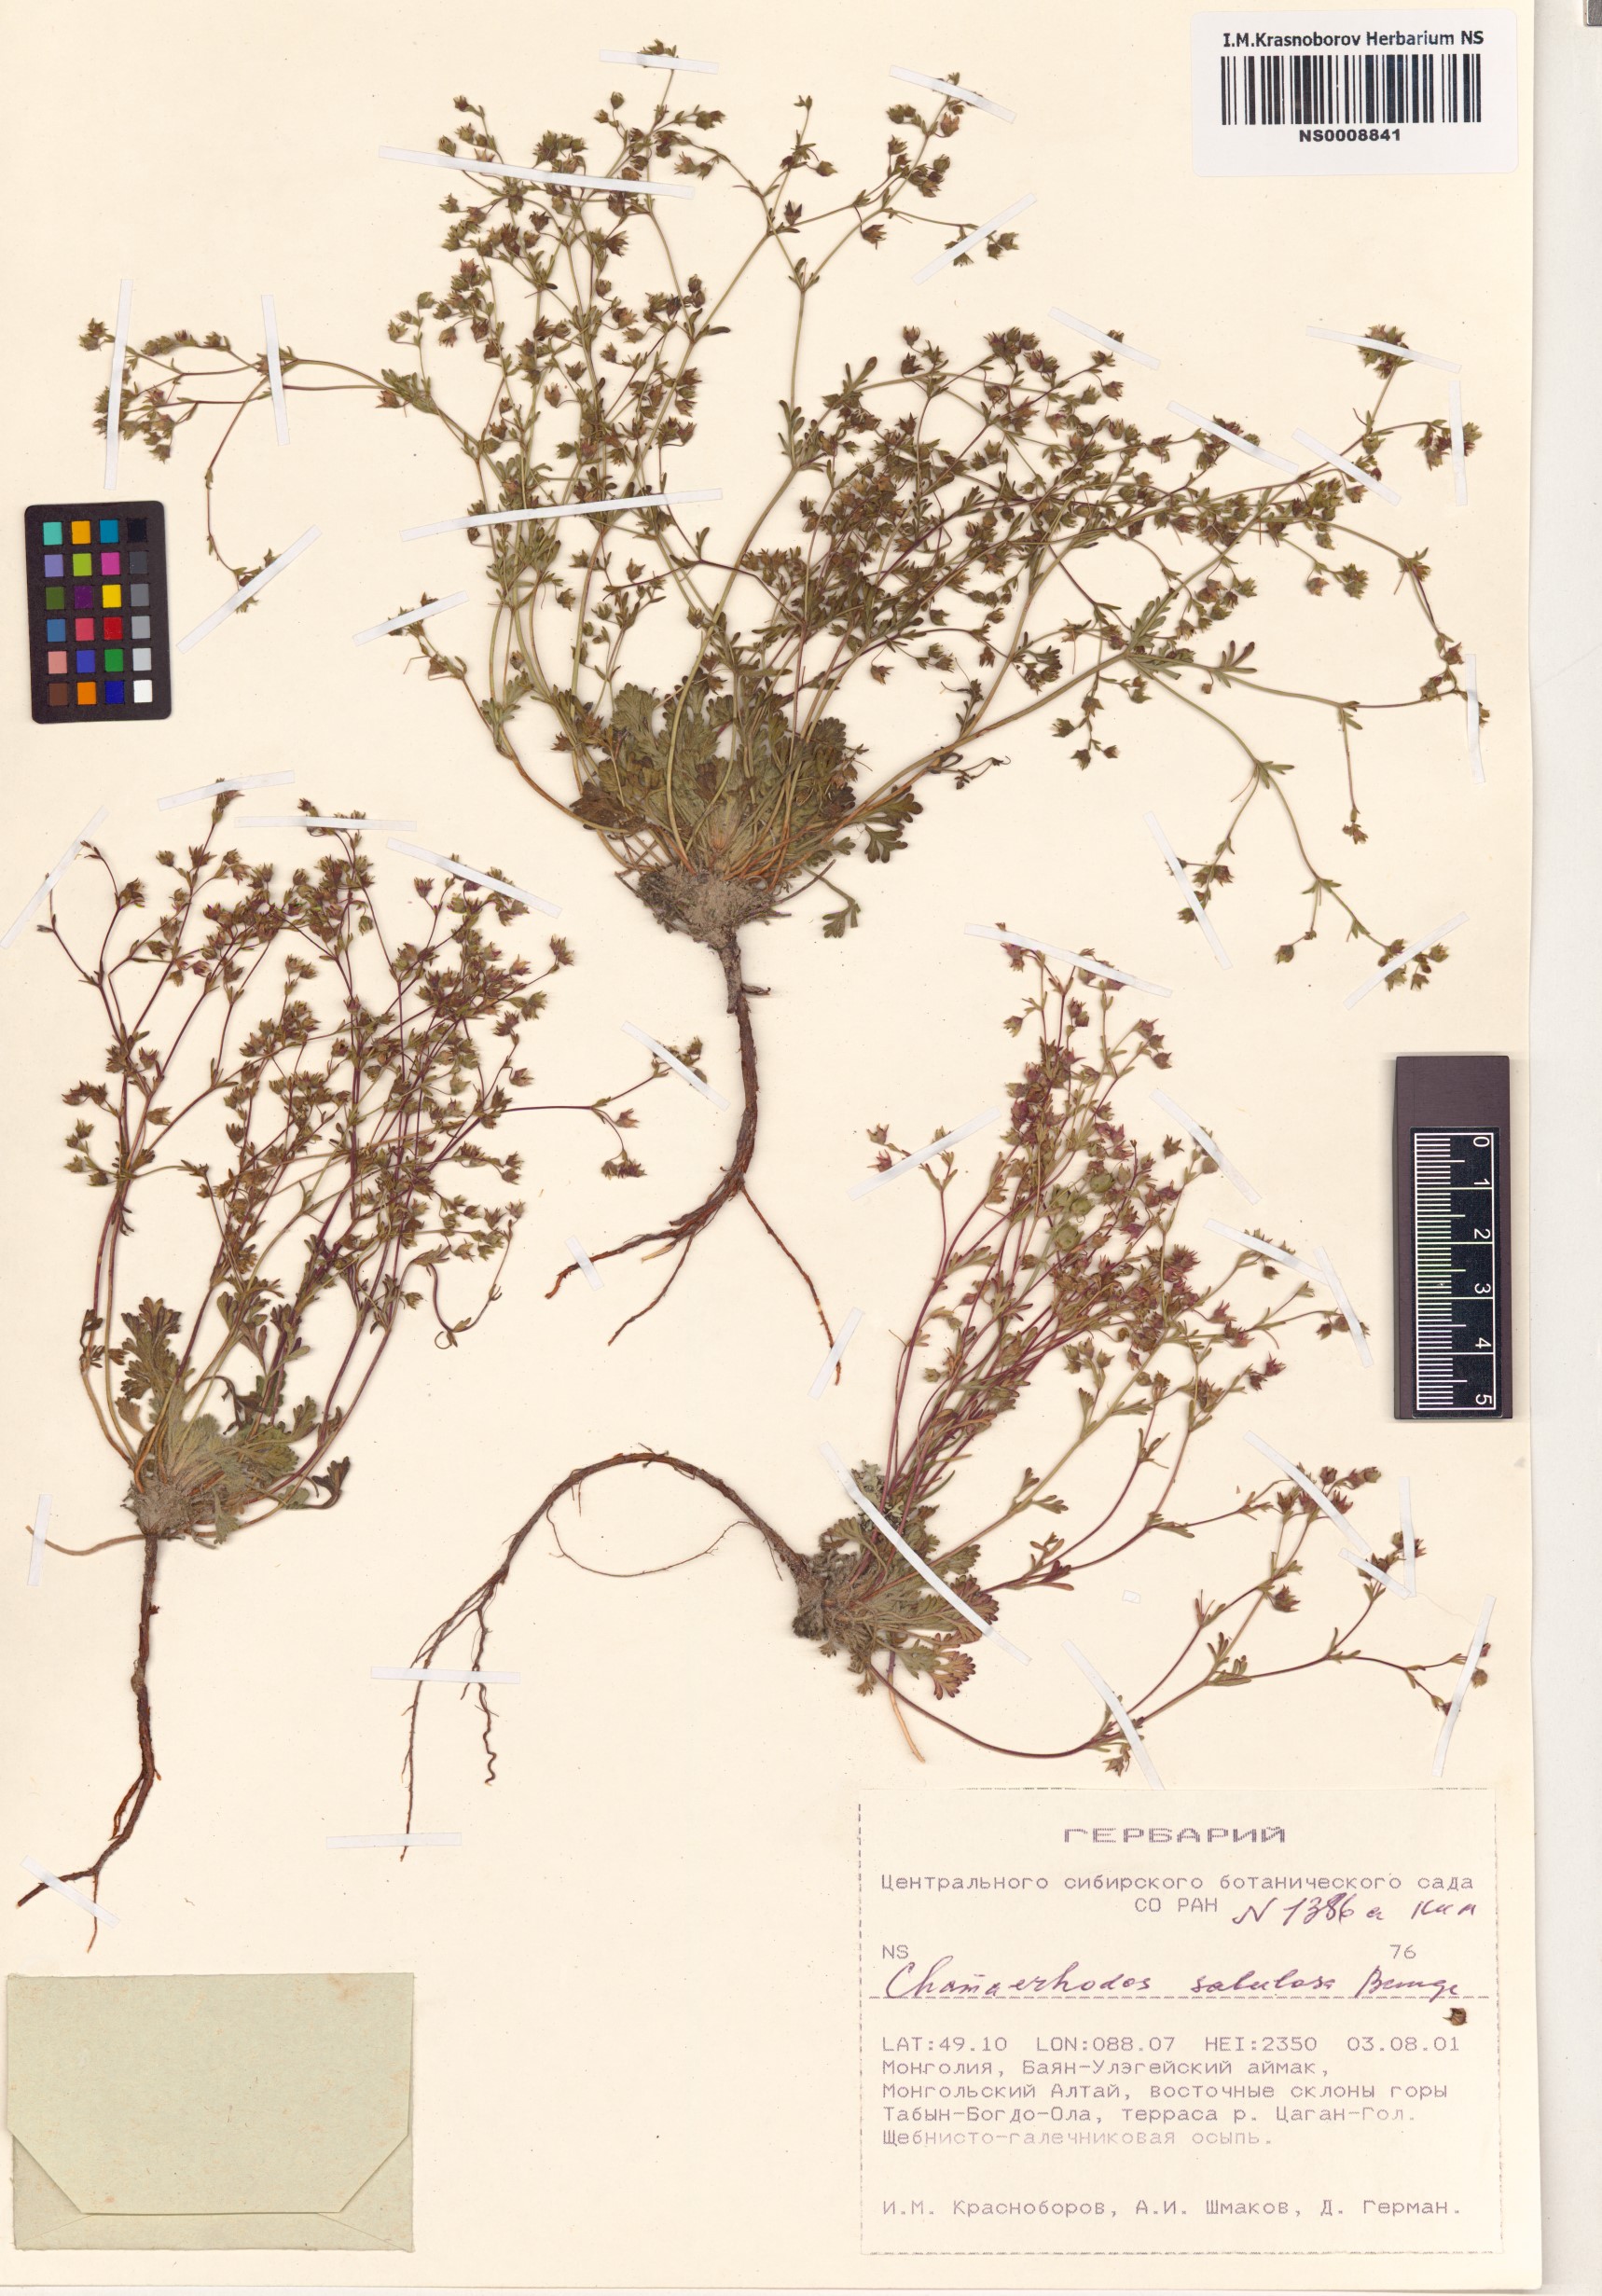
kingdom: Plantae
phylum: Tracheophyta
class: Magnoliopsida
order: Rosales
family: Rosaceae
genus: Chamaerhodos
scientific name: Chamaerhodos sabulosa
